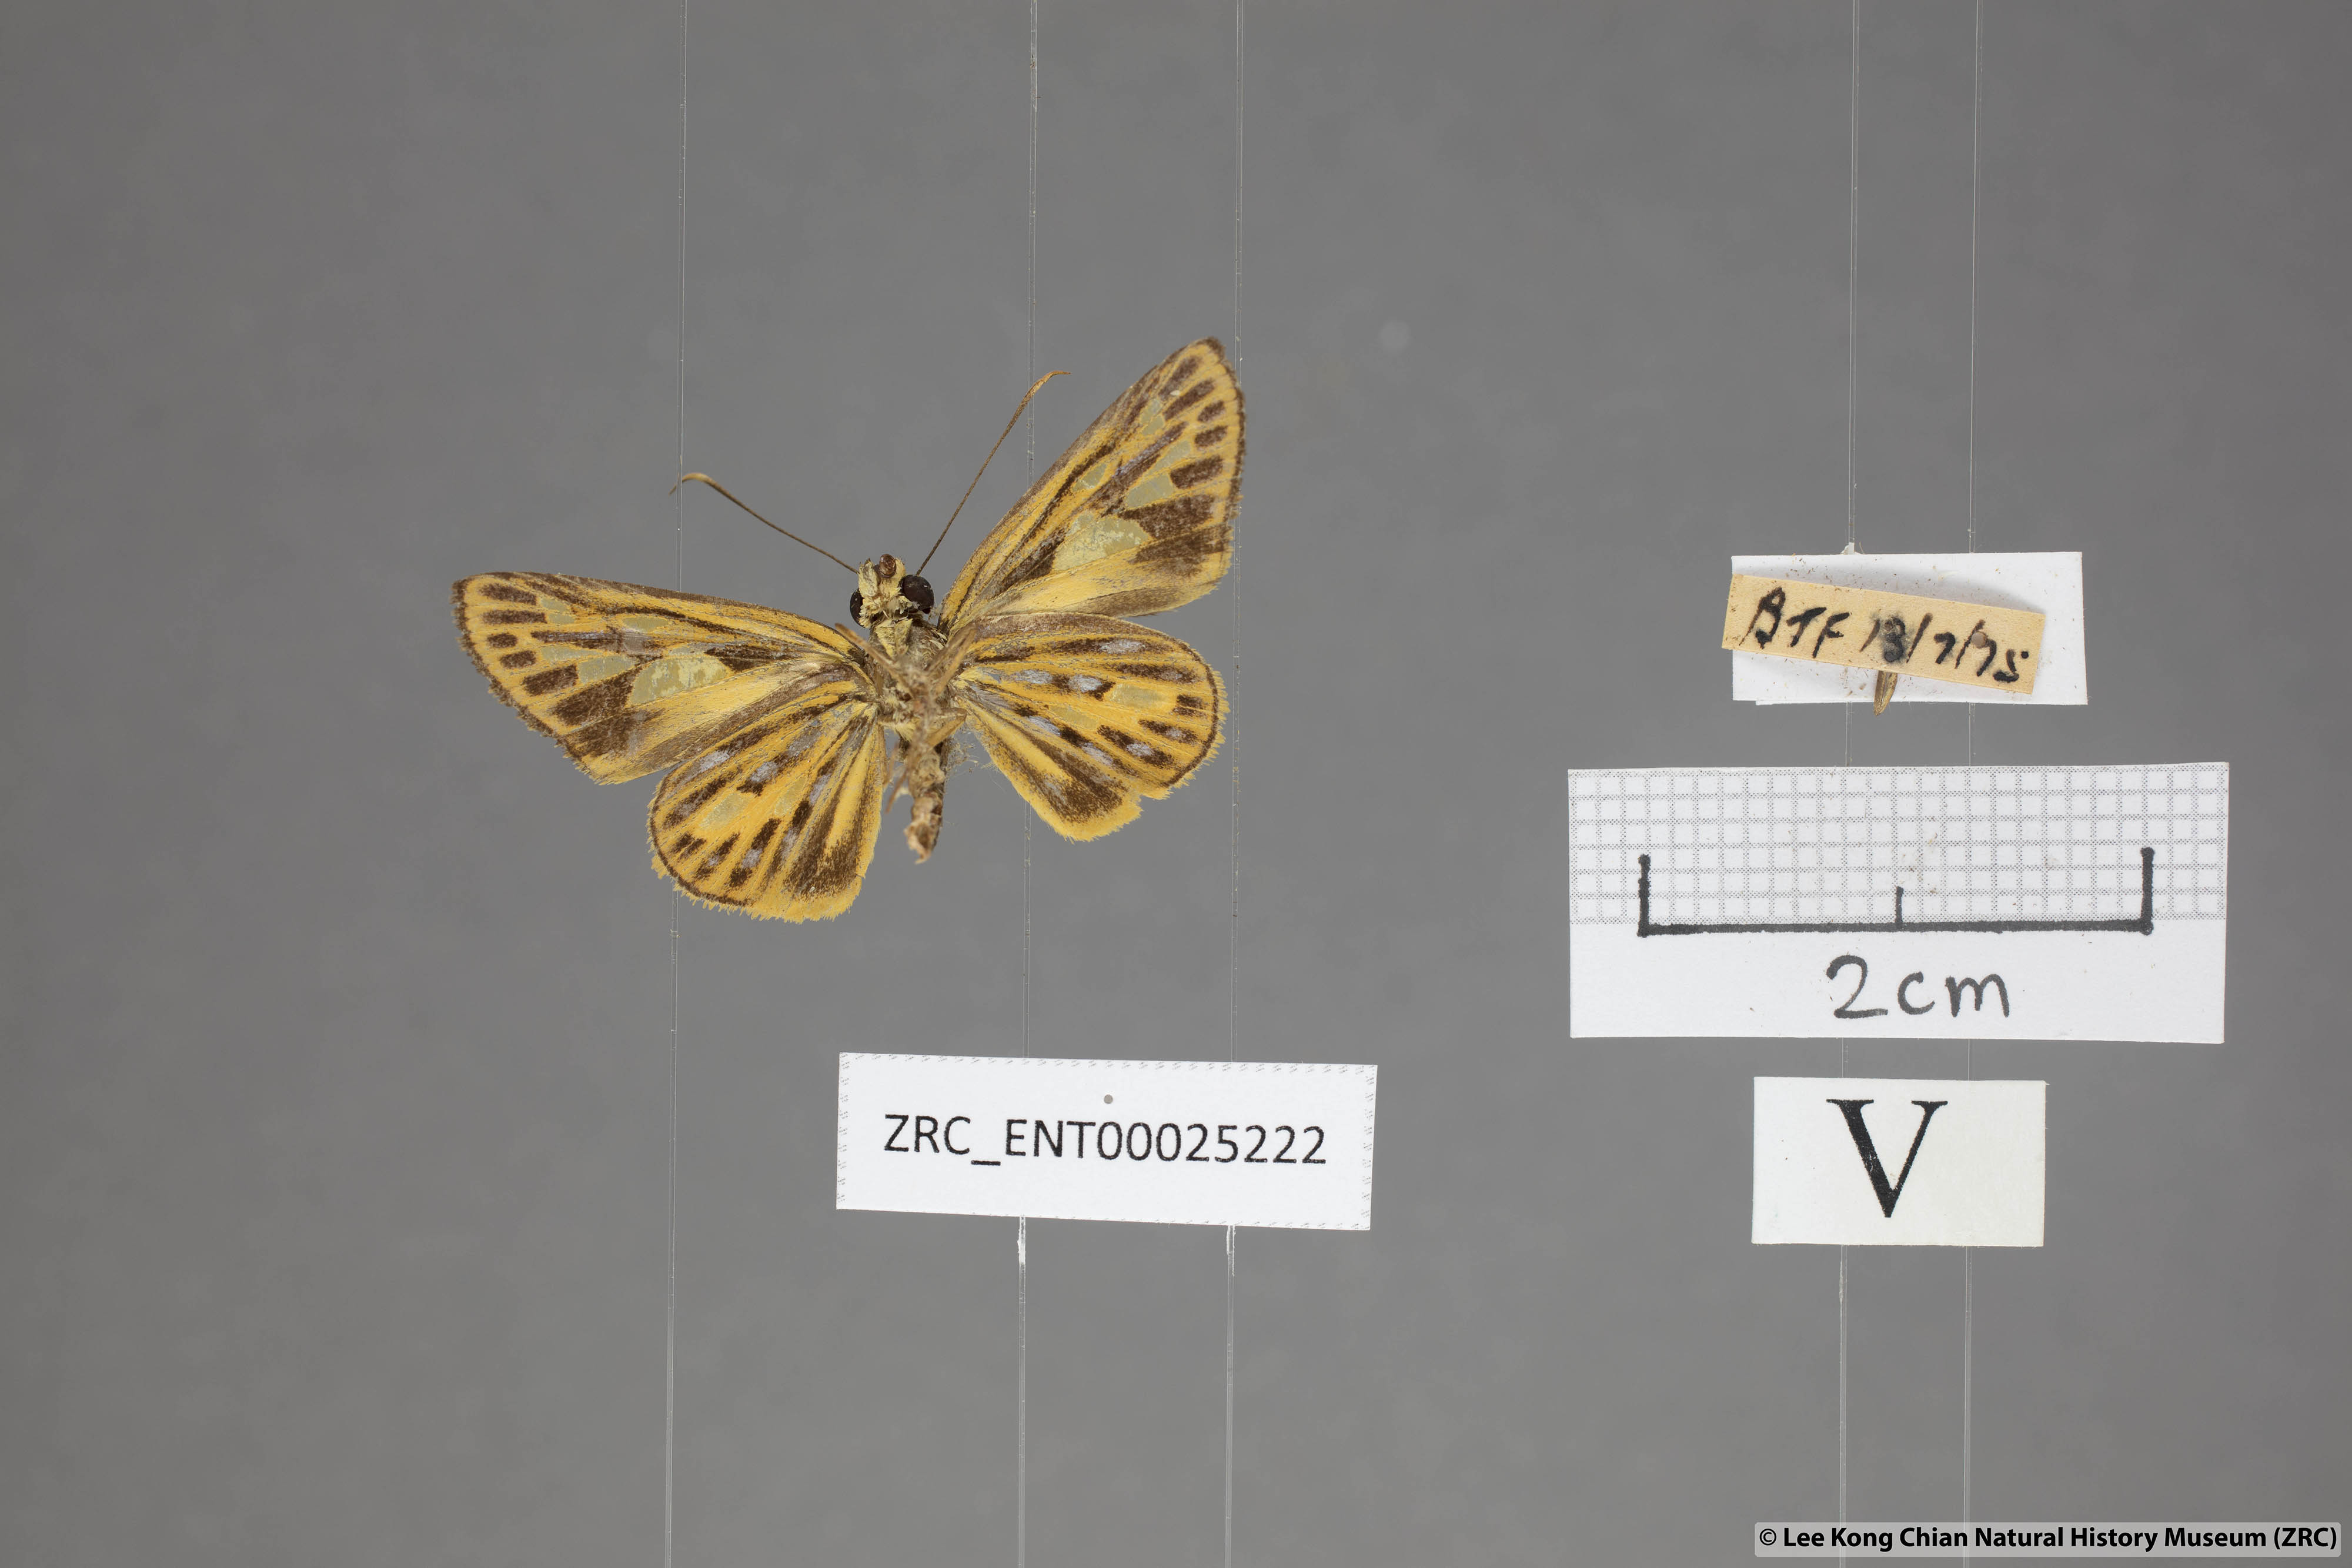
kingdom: Animalia
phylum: Arthropoda
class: Insecta
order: Lepidoptera
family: Hesperiidae
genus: Pyroneura
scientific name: Pyroneura flavia
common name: Lesser lancer
